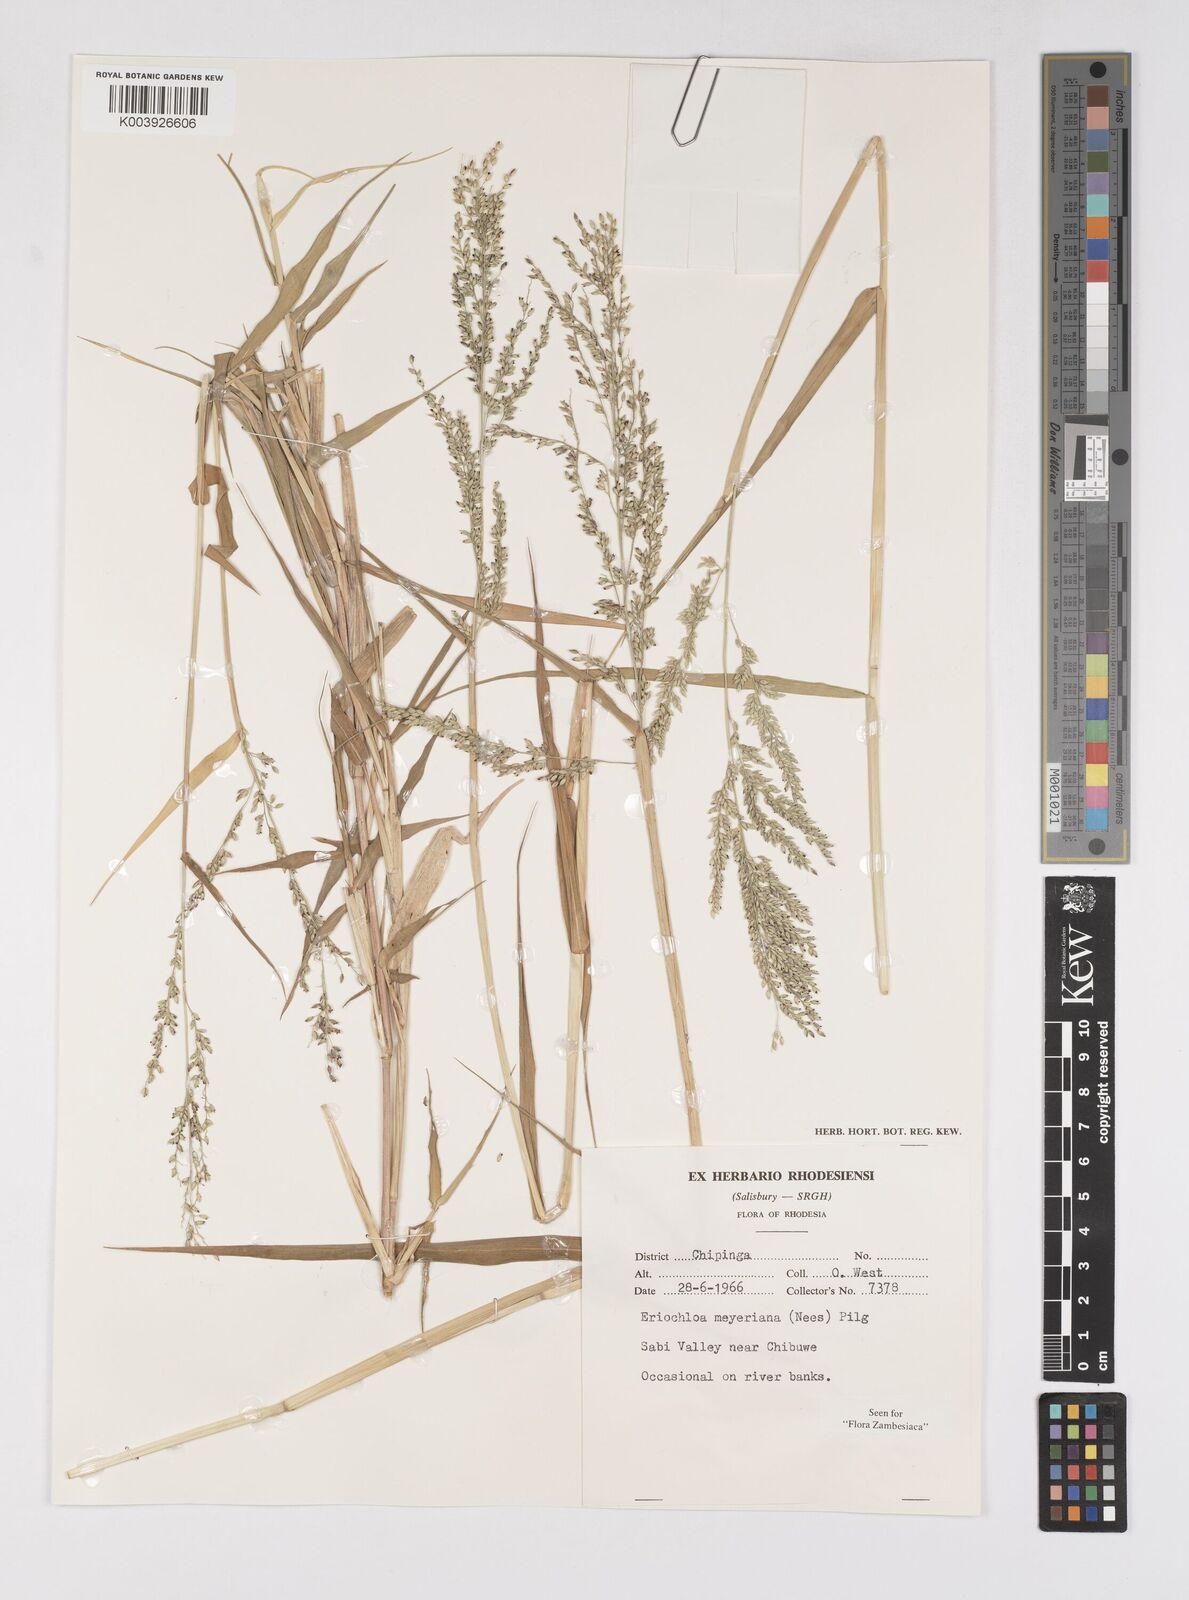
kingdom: Plantae
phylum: Tracheophyta
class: Liliopsida
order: Poales
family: Poaceae
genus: Eriochloa
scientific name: Eriochloa meyeriana
